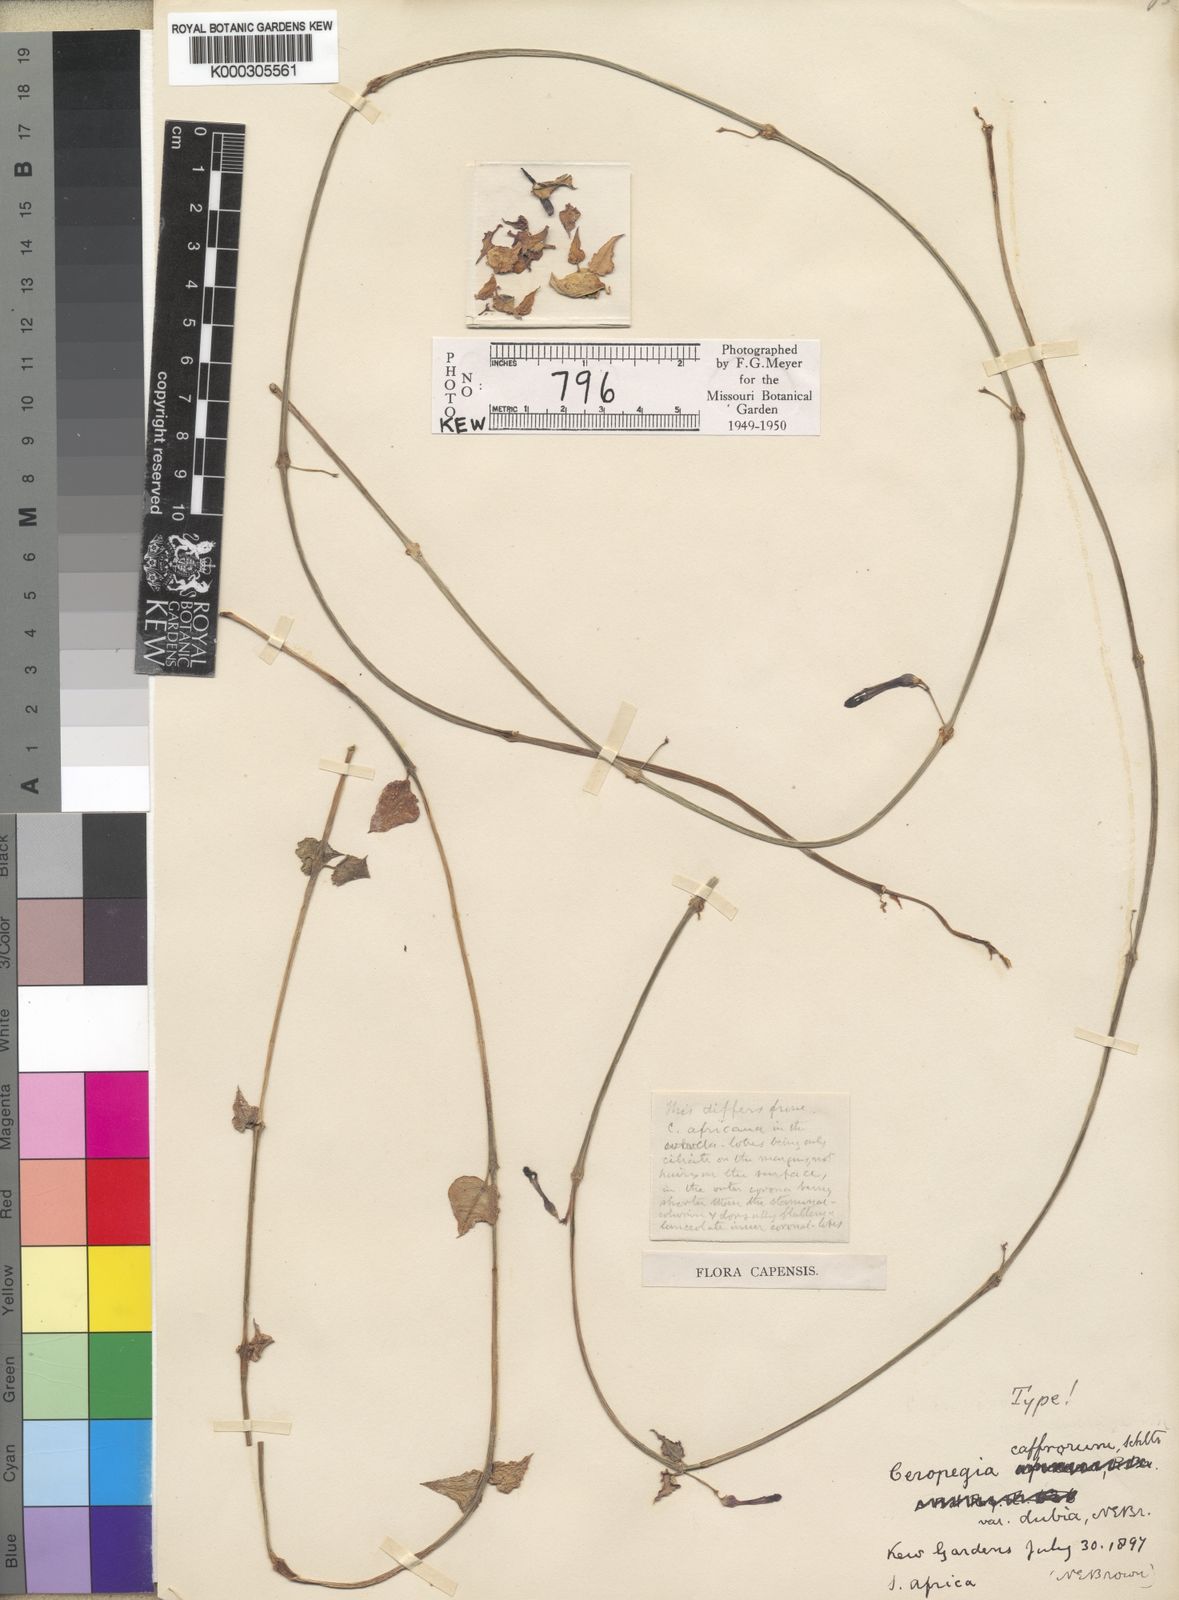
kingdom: Plantae
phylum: Tracheophyta
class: Magnoliopsida
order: Gentianales
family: Apocynaceae
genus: Ceropegia
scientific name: Ceropegia linearis
